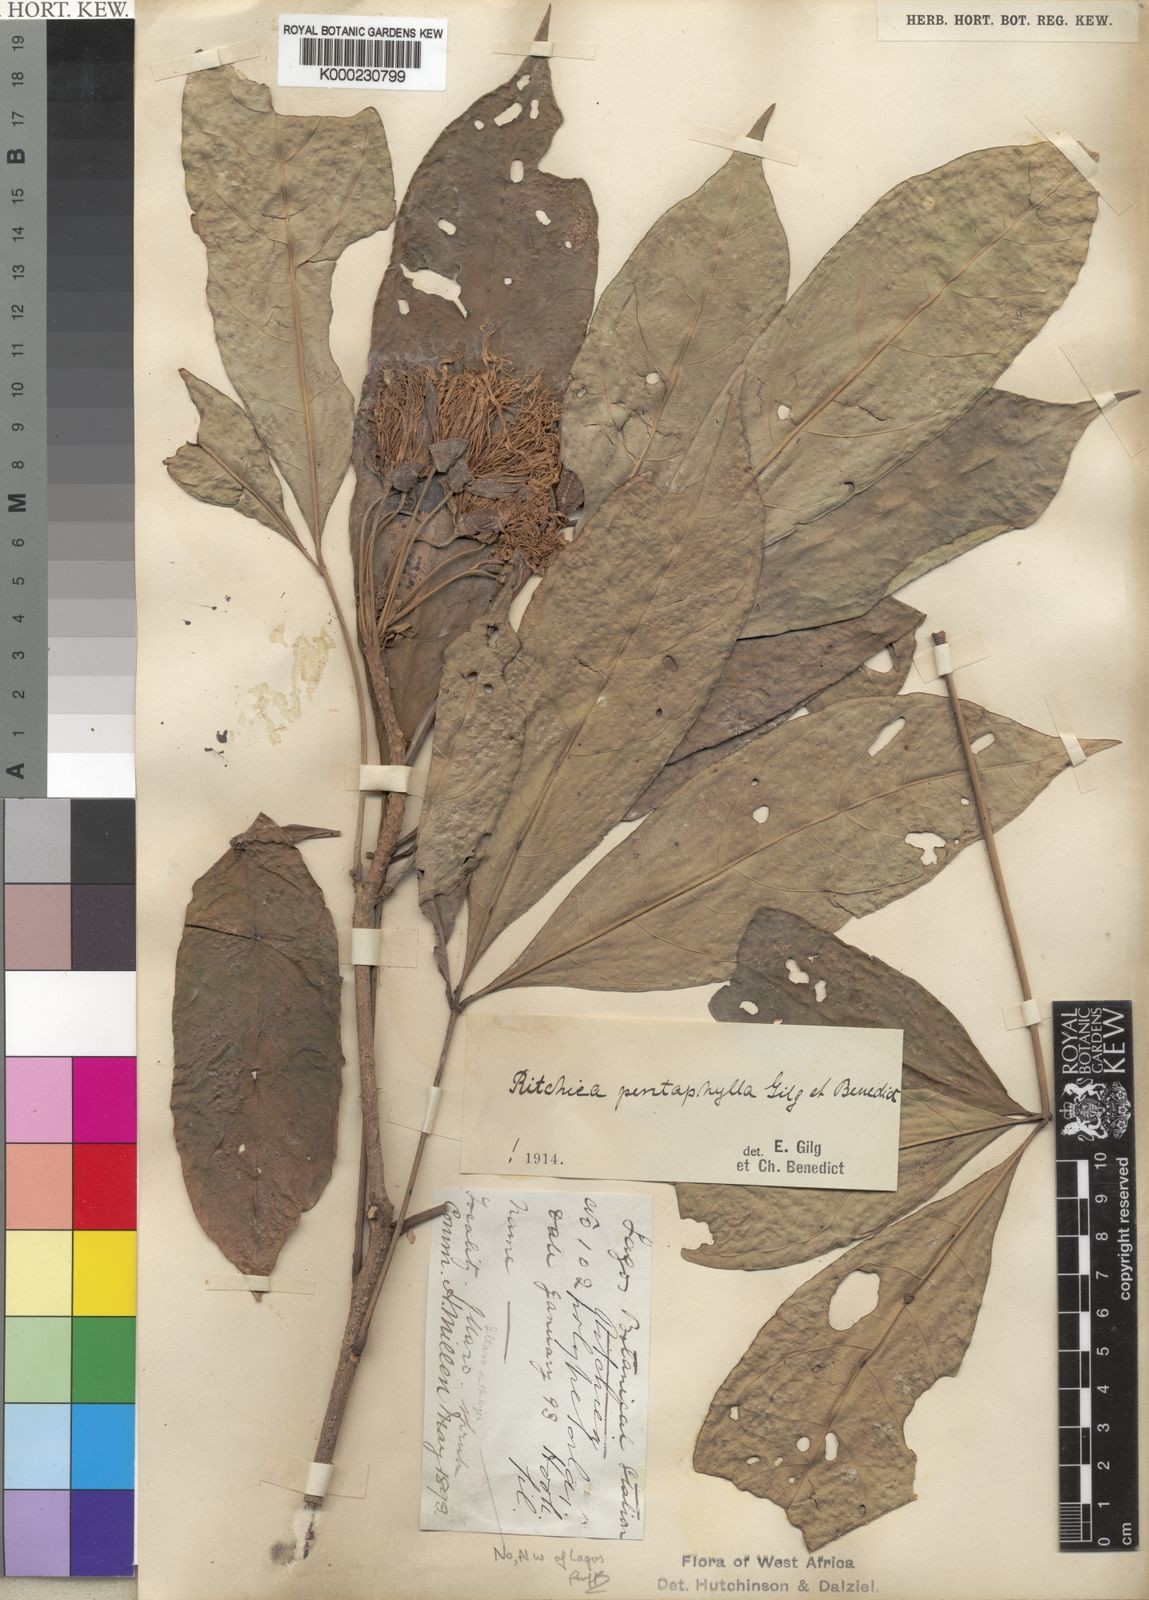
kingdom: Plantae
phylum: Tracheophyta
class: Magnoliopsida
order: Brassicales
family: Capparaceae
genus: Ritchiea
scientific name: Ritchiea erecta
